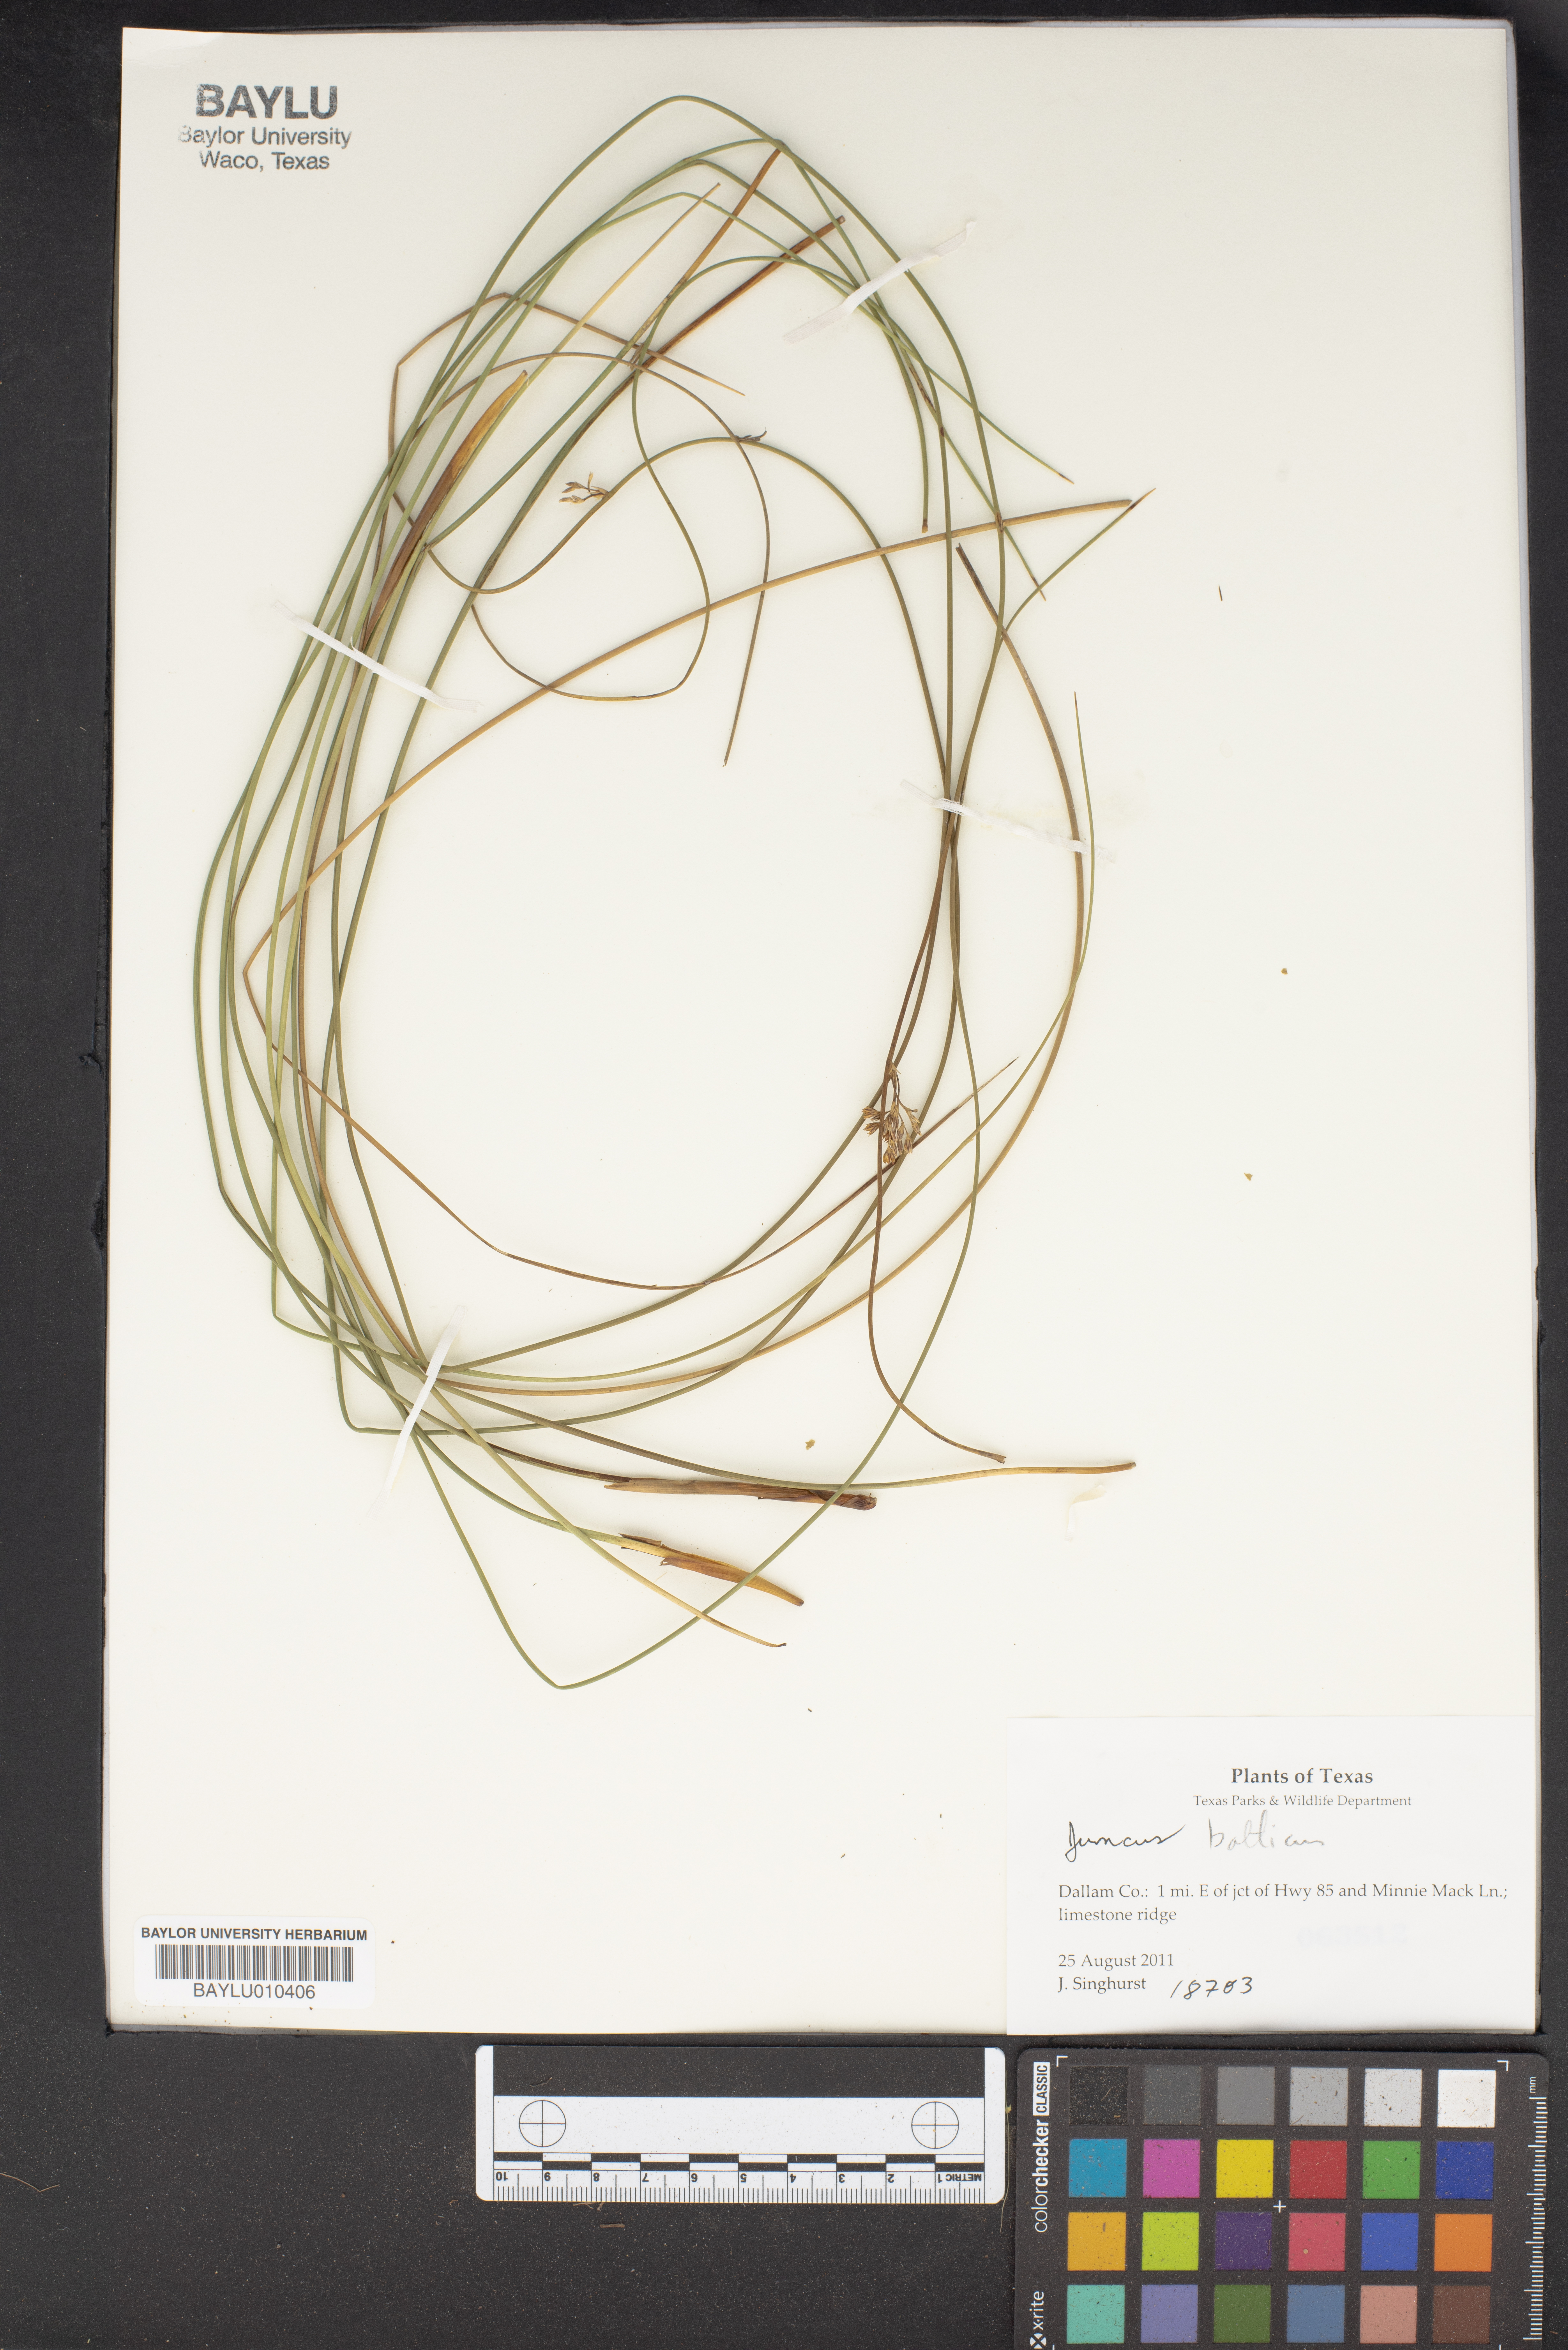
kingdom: Plantae
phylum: Tracheophyta
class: Liliopsida
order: Poales
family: Juncaceae
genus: Juncus
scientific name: Juncus balticus
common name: Baltic rush
